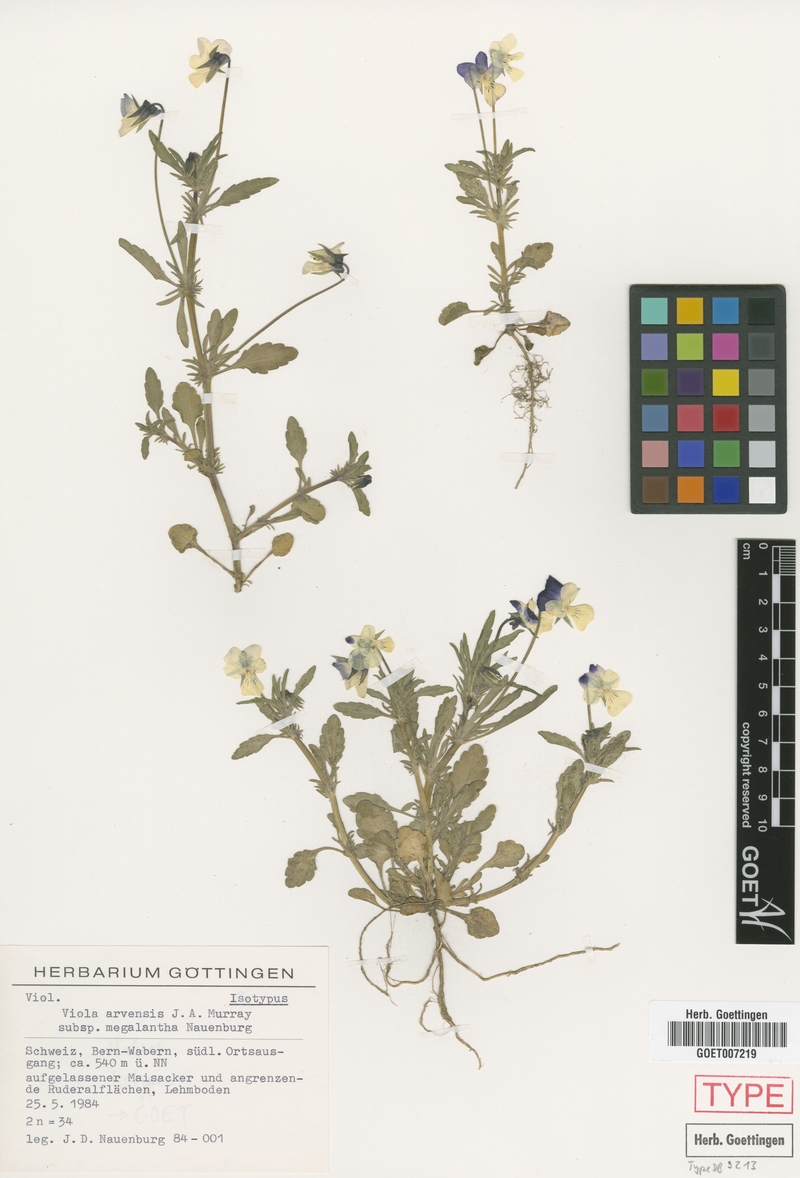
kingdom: Plantae
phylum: Tracheophyta
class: Magnoliopsida
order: Malpighiales
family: Violaceae
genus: Viola
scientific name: Viola arvensis
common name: Field pansy
